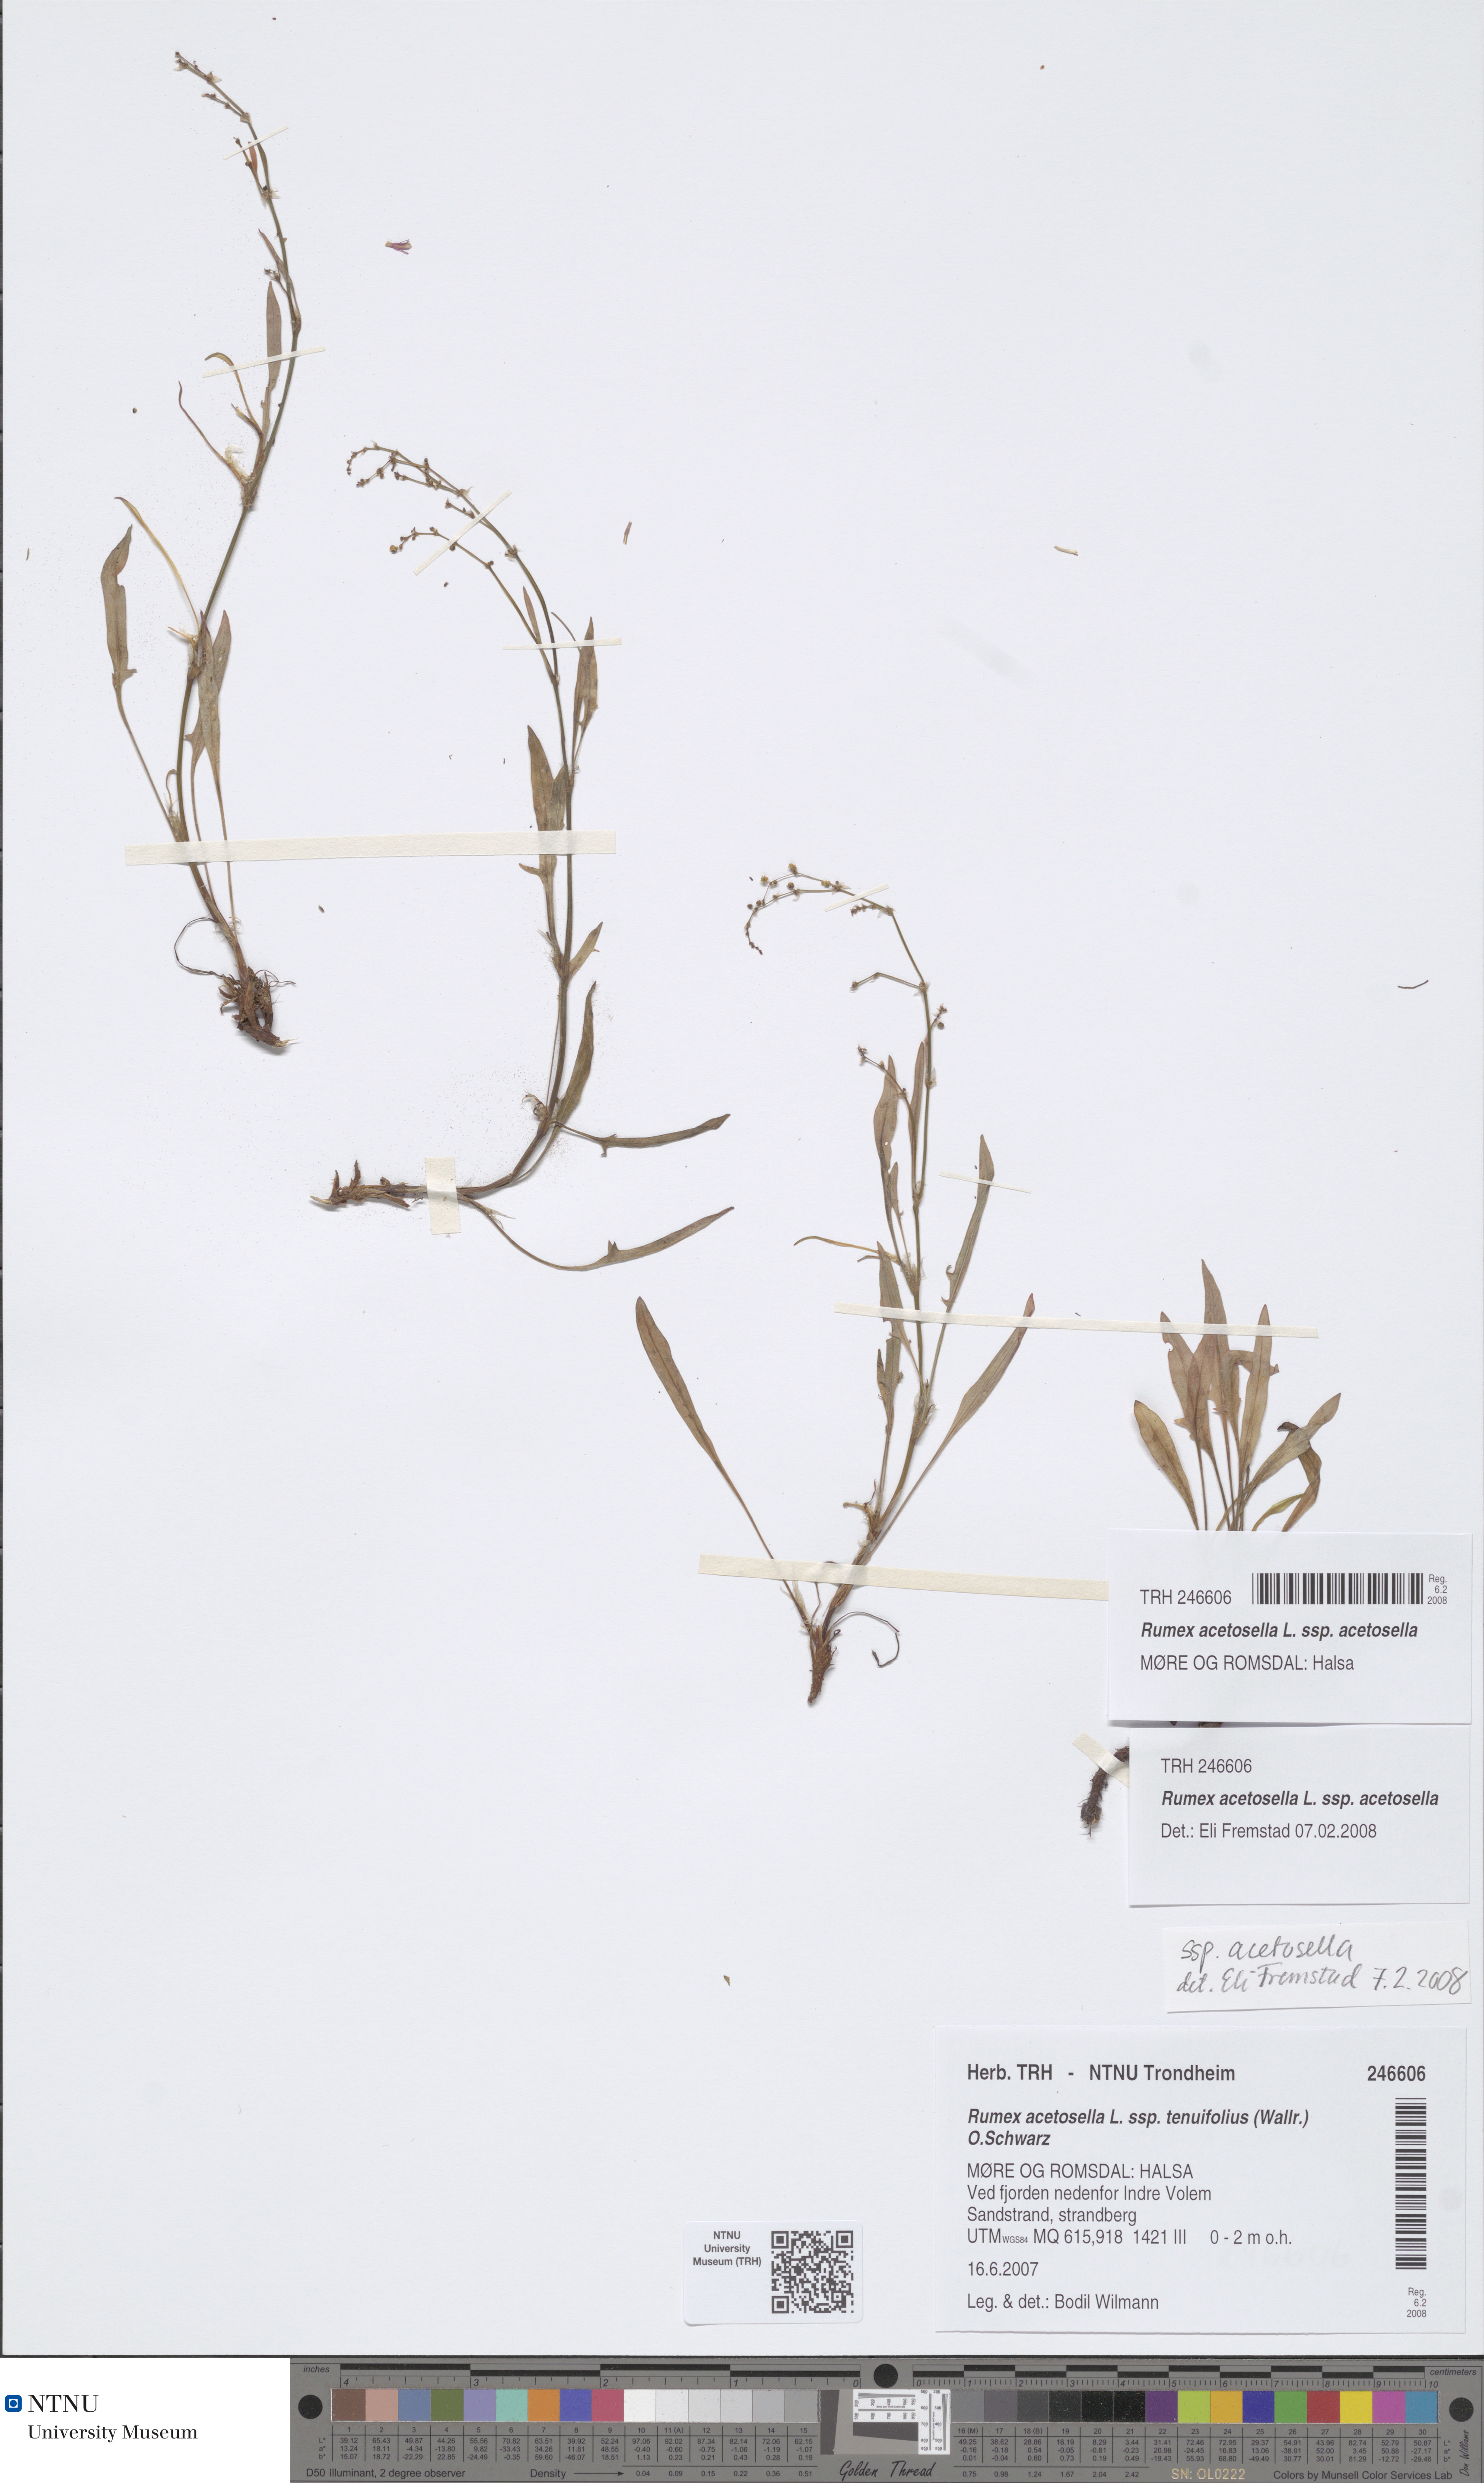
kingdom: Plantae
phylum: Tracheophyta
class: Magnoliopsida
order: Caryophyllales
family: Polygonaceae
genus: Rumex
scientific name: Rumex acetosella
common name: Common sheep sorrel
